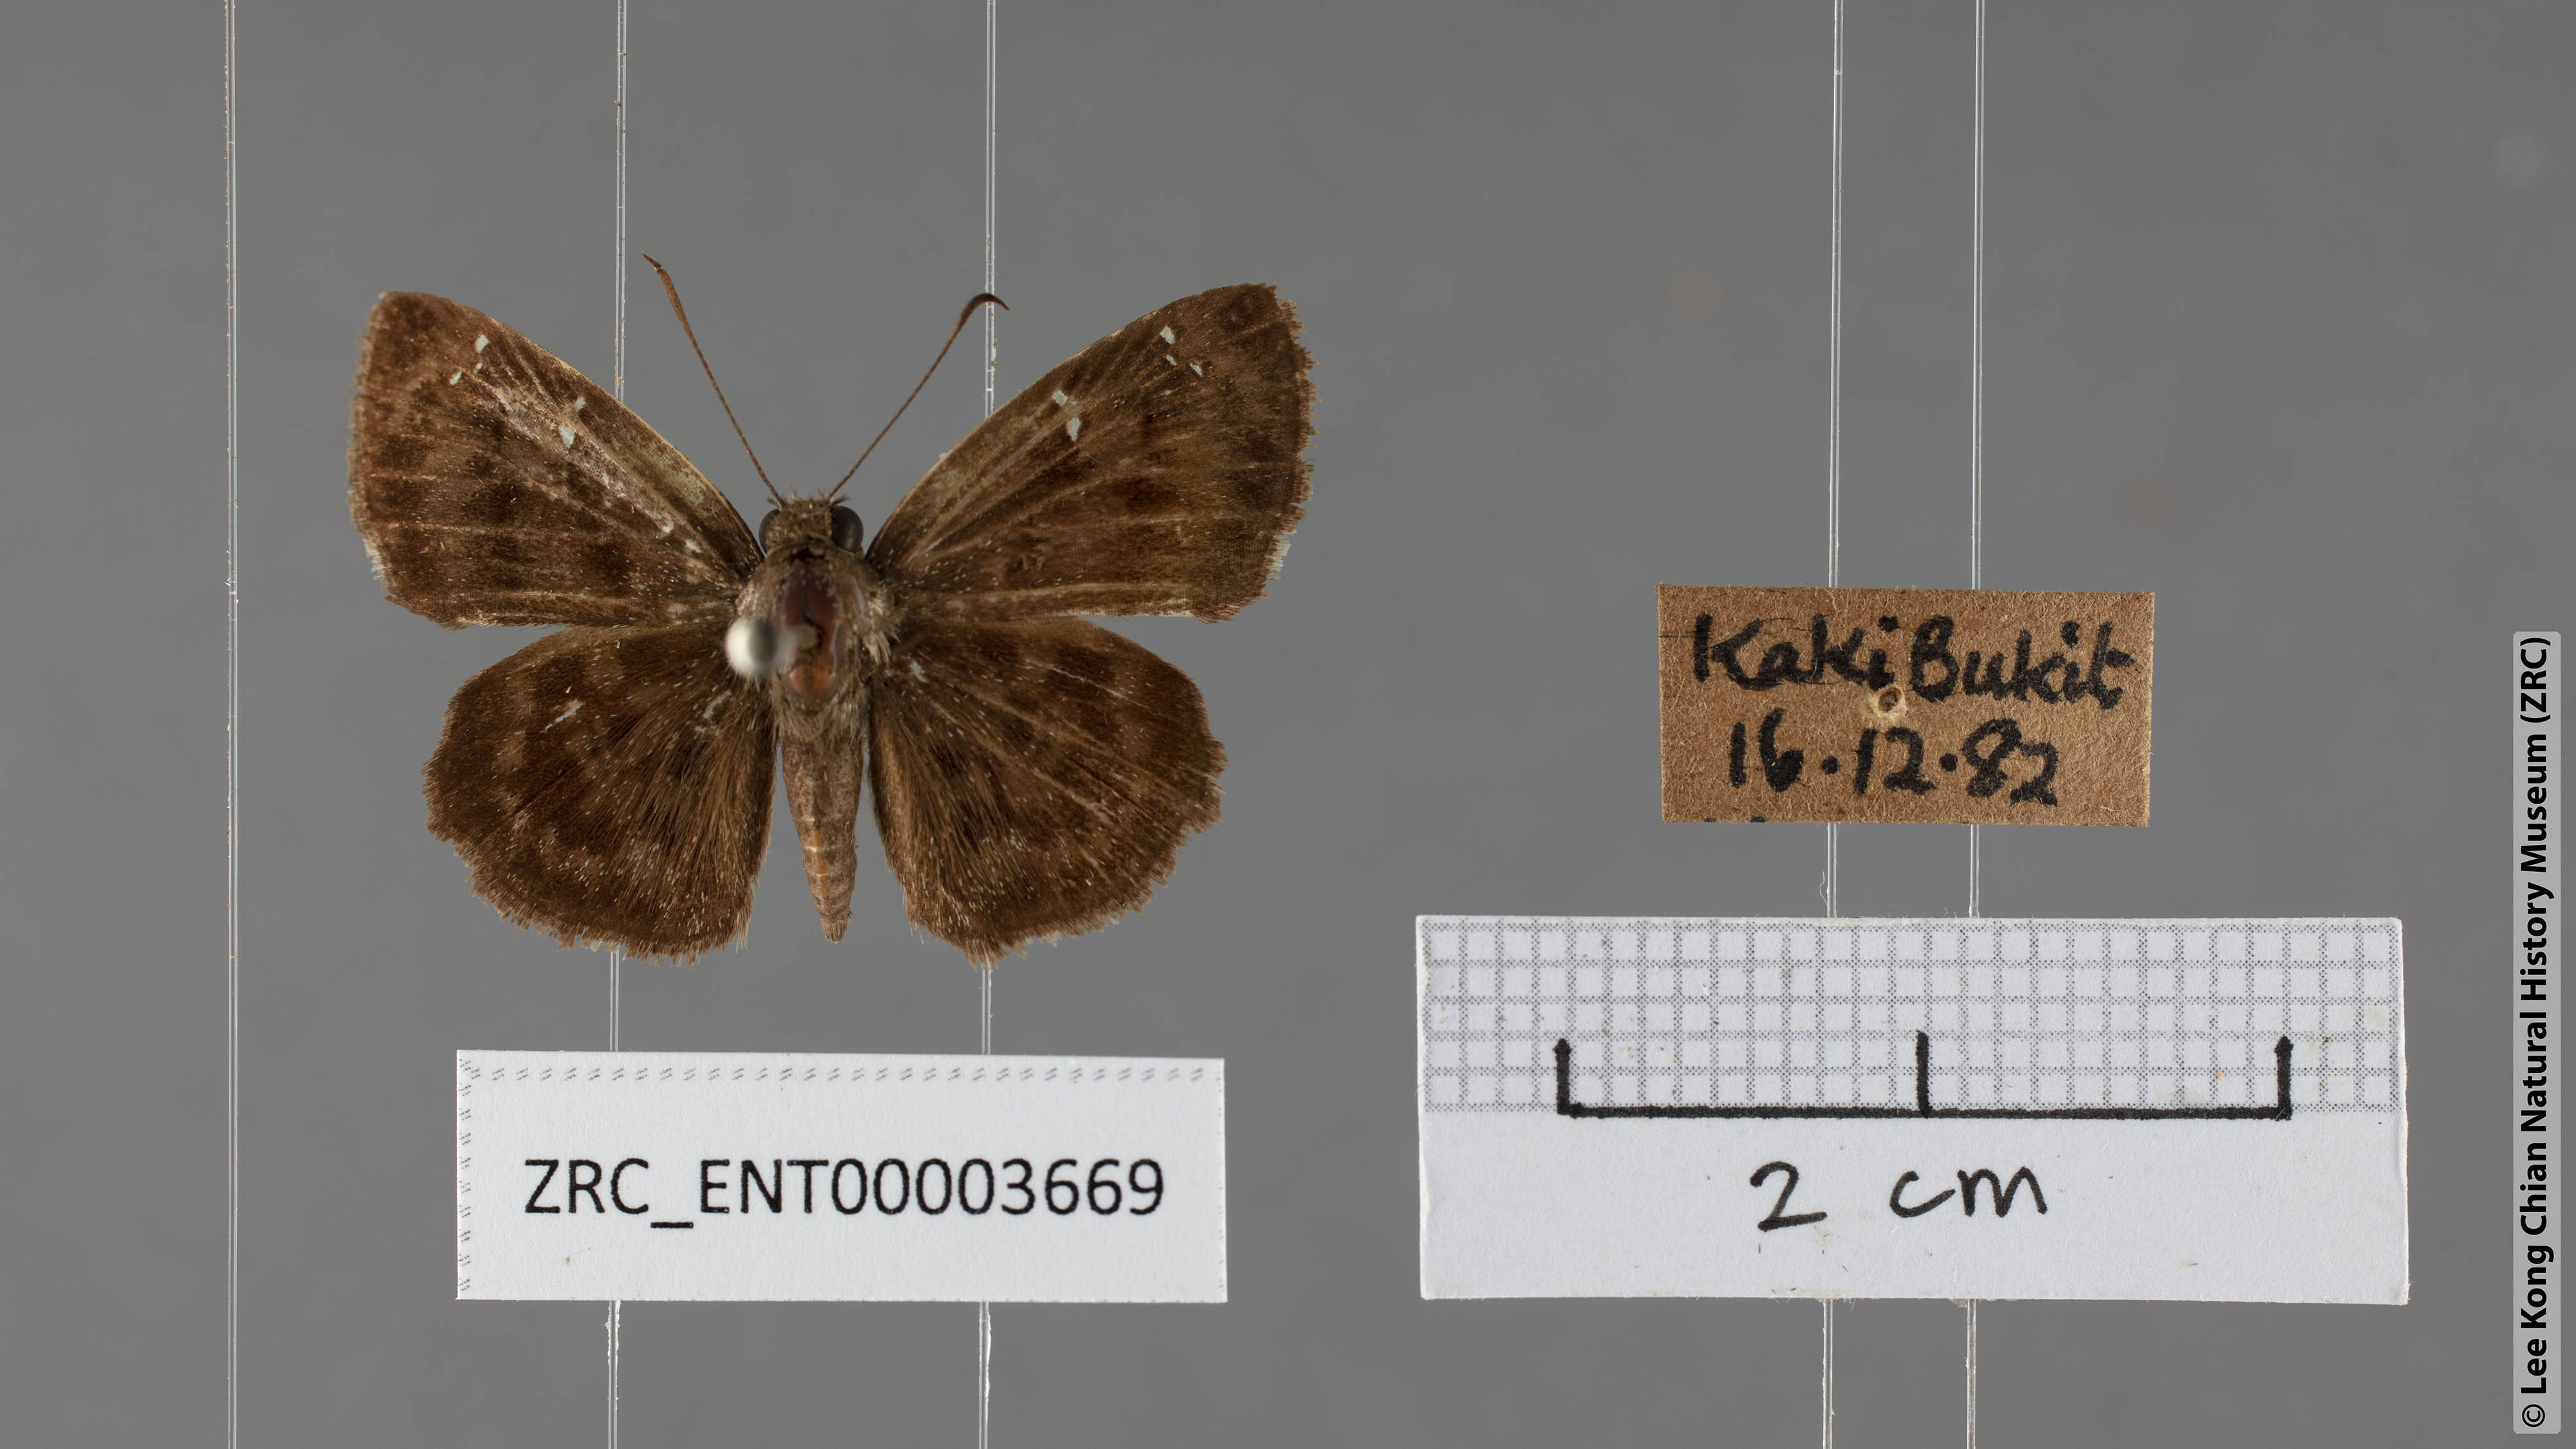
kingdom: Animalia
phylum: Arthropoda
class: Insecta
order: Lepidoptera
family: Hesperiidae
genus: Sarangesa
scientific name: Sarangesa dasahara
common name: Common small flat
